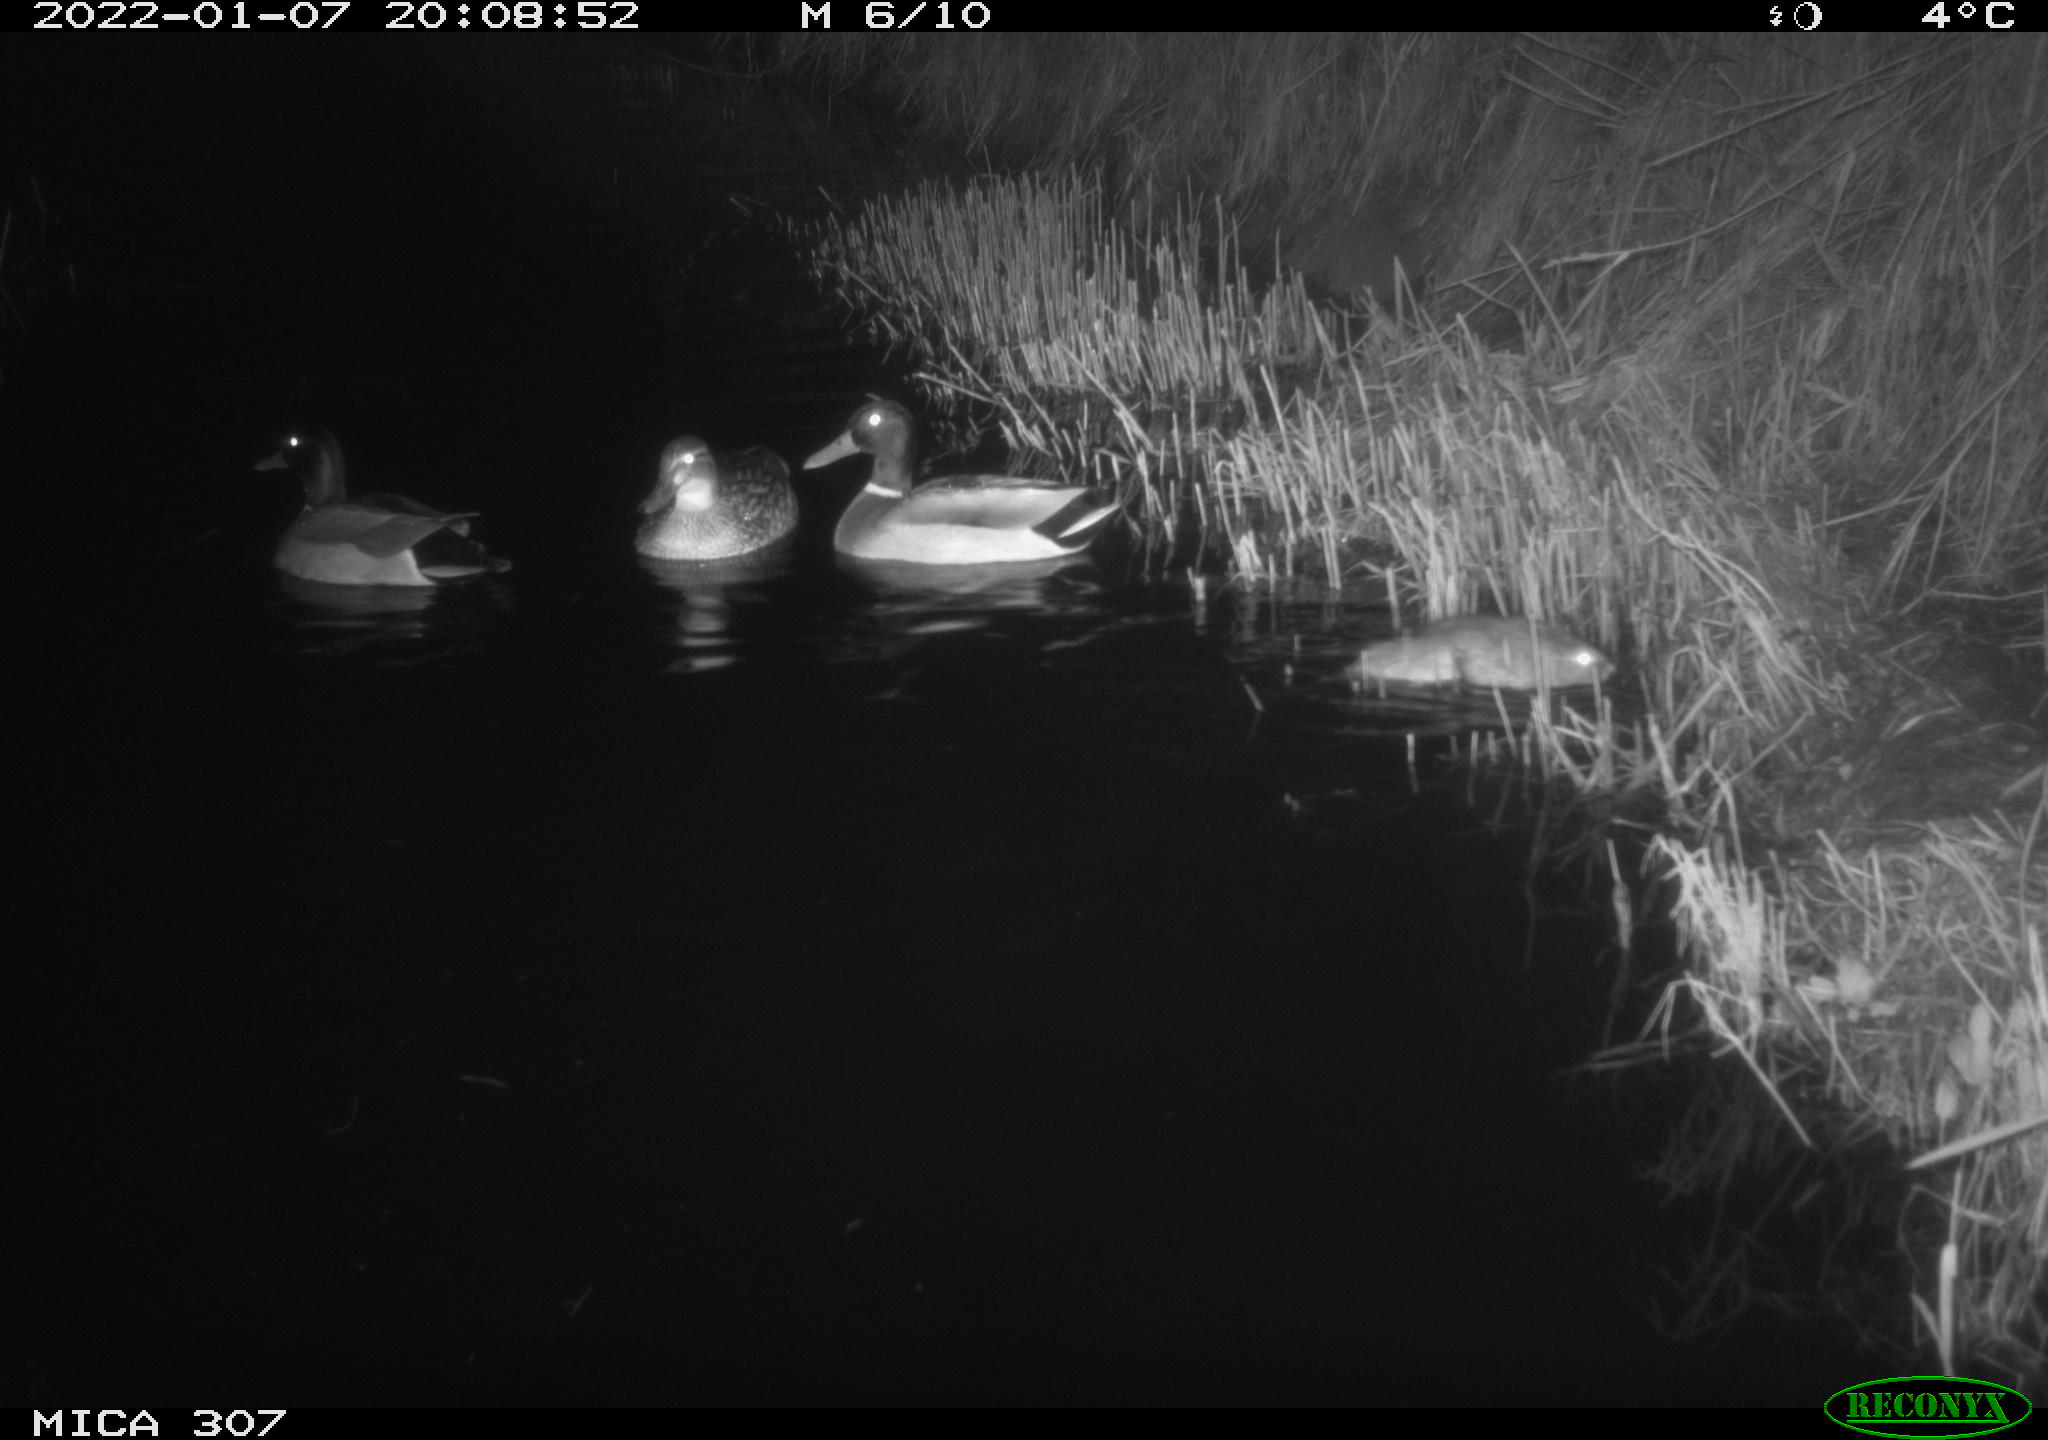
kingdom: Animalia
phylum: Chordata
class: Aves
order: Anseriformes
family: Anatidae
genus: Anas
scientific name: Anas
